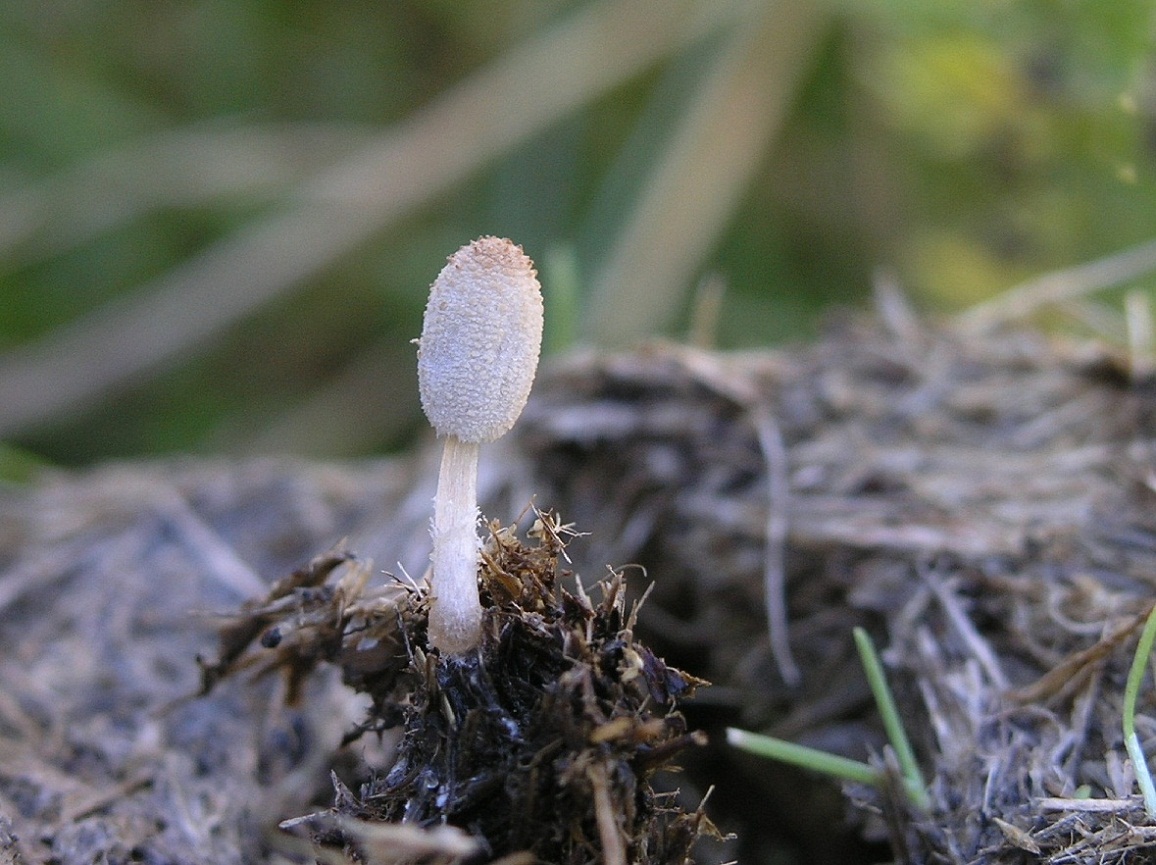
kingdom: Fungi
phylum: Basidiomycota
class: Agaricomycetes
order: Agaricales
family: Psathyrellaceae
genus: Narcissea
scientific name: Narcissea ephemeroides
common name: ring-blækhat
